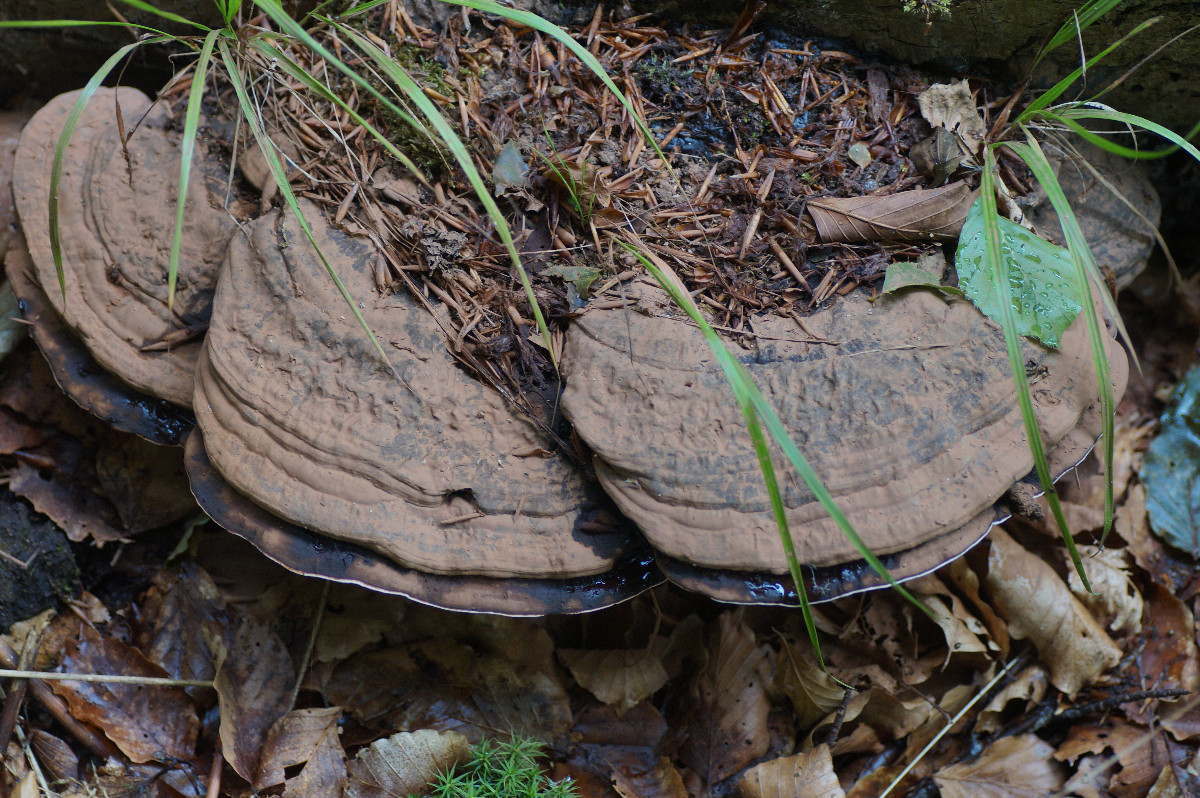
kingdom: Fungi
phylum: Basidiomycota
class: Agaricomycetes
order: Polyporales
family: Polyporaceae
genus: Ganoderma
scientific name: Ganoderma applanatum
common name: flad lakporesvamp
